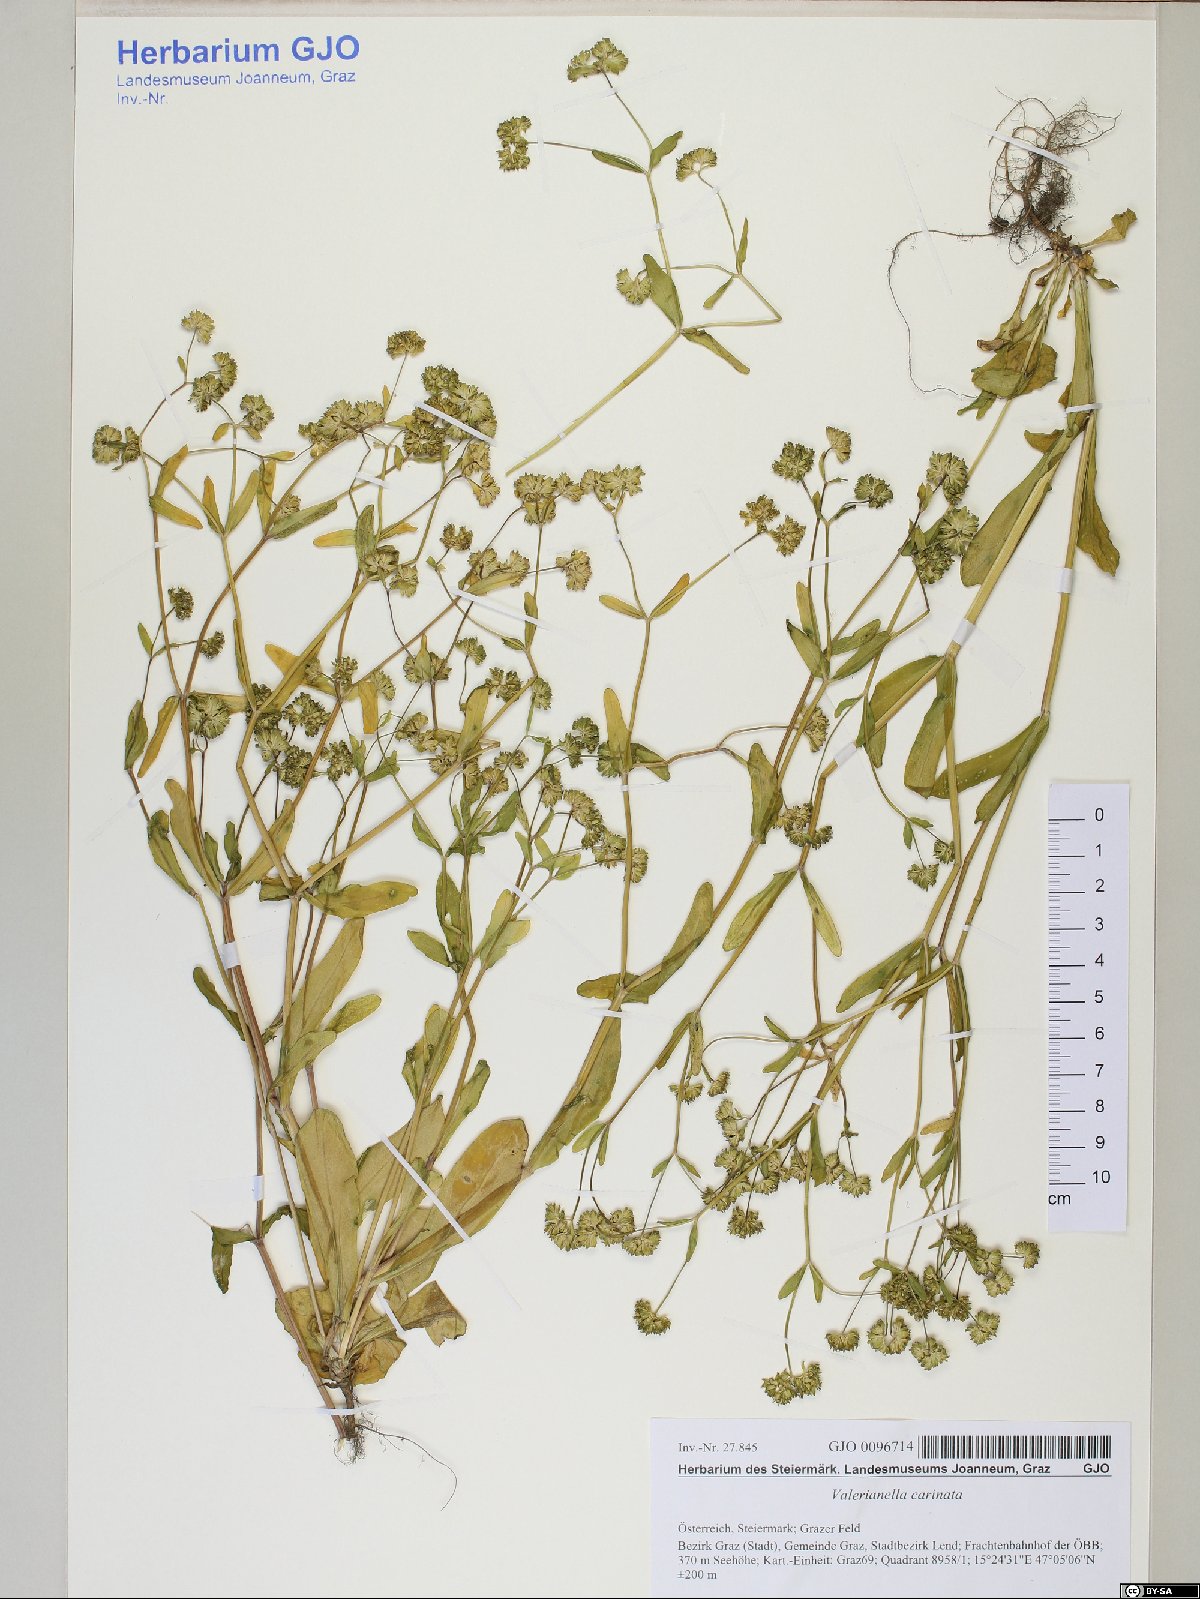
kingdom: Plantae
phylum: Tracheophyta
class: Magnoliopsida
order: Dipsacales
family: Caprifoliaceae
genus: Valerianella
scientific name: Valerianella carinata
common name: Keeled-fruited cornsalad
